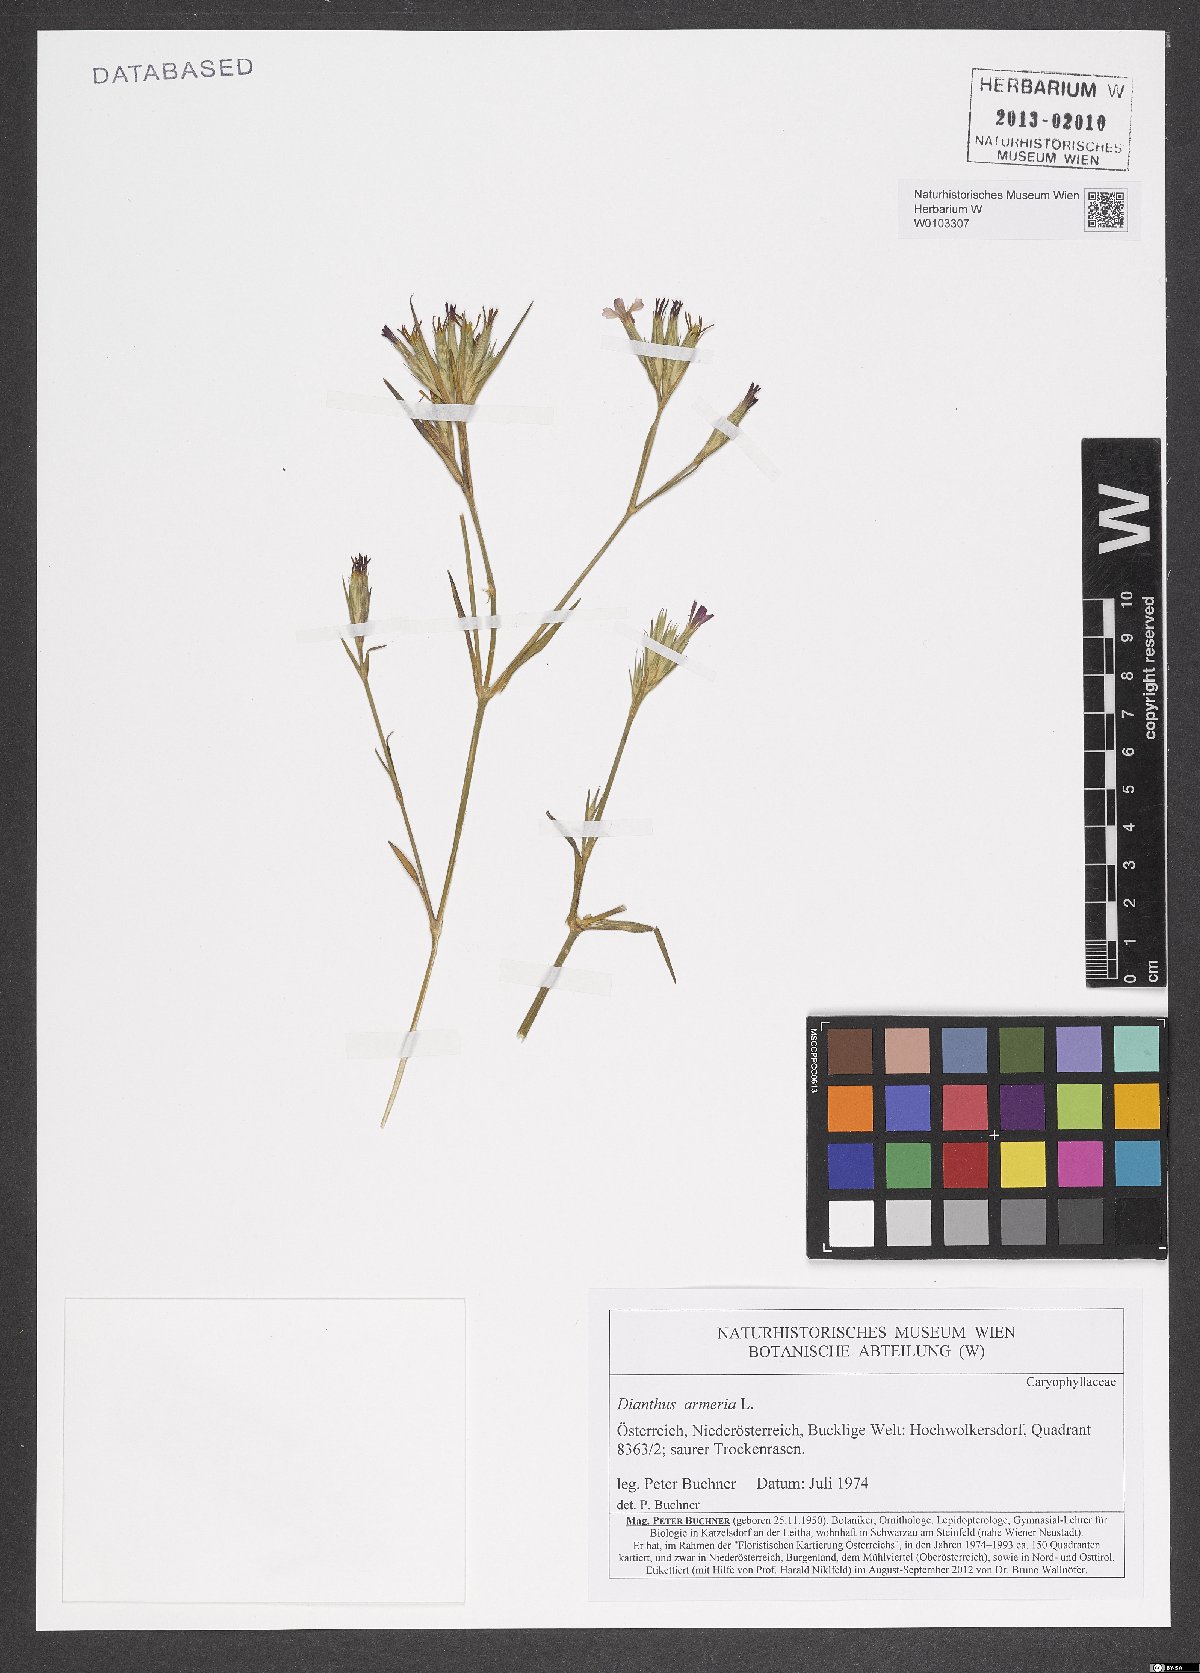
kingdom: Plantae
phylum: Tracheophyta
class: Magnoliopsida
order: Caryophyllales
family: Caryophyllaceae
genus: Dianthus
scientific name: Dianthus armeria
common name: Deptford pink
